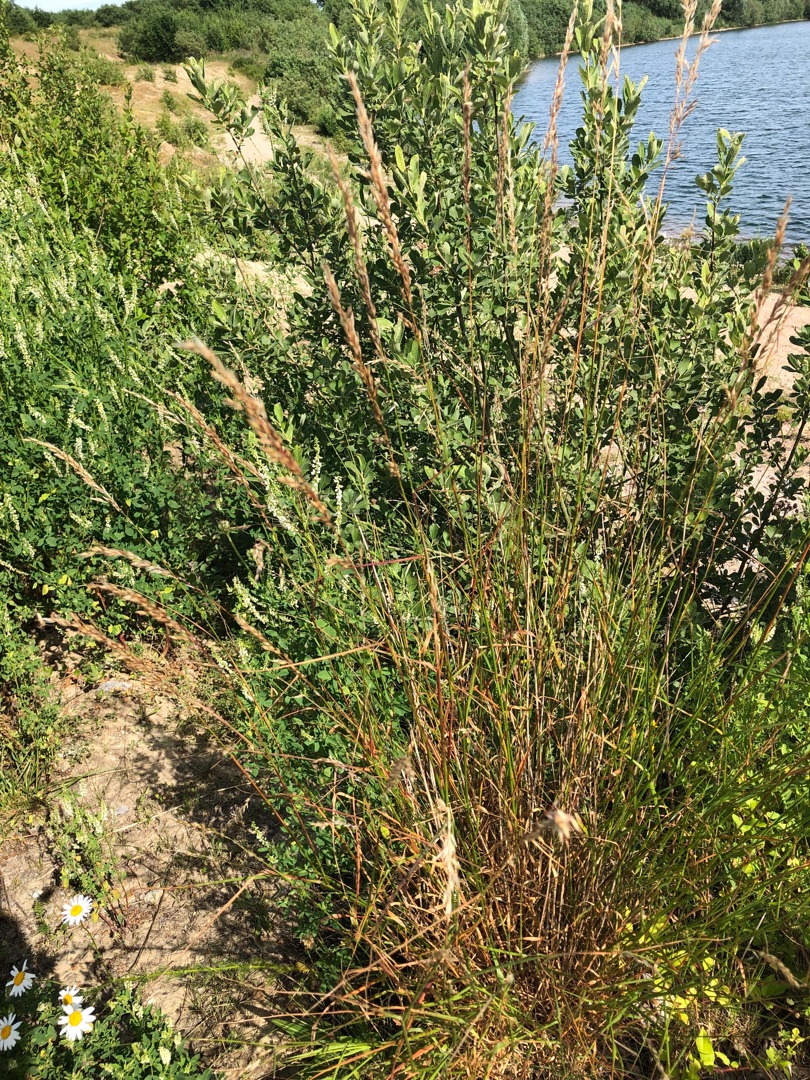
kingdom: Plantae
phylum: Tracheophyta
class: Liliopsida
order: Poales
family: Poaceae
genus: Arrhenatherum
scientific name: Arrhenatherum elatius
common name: Draphavre
